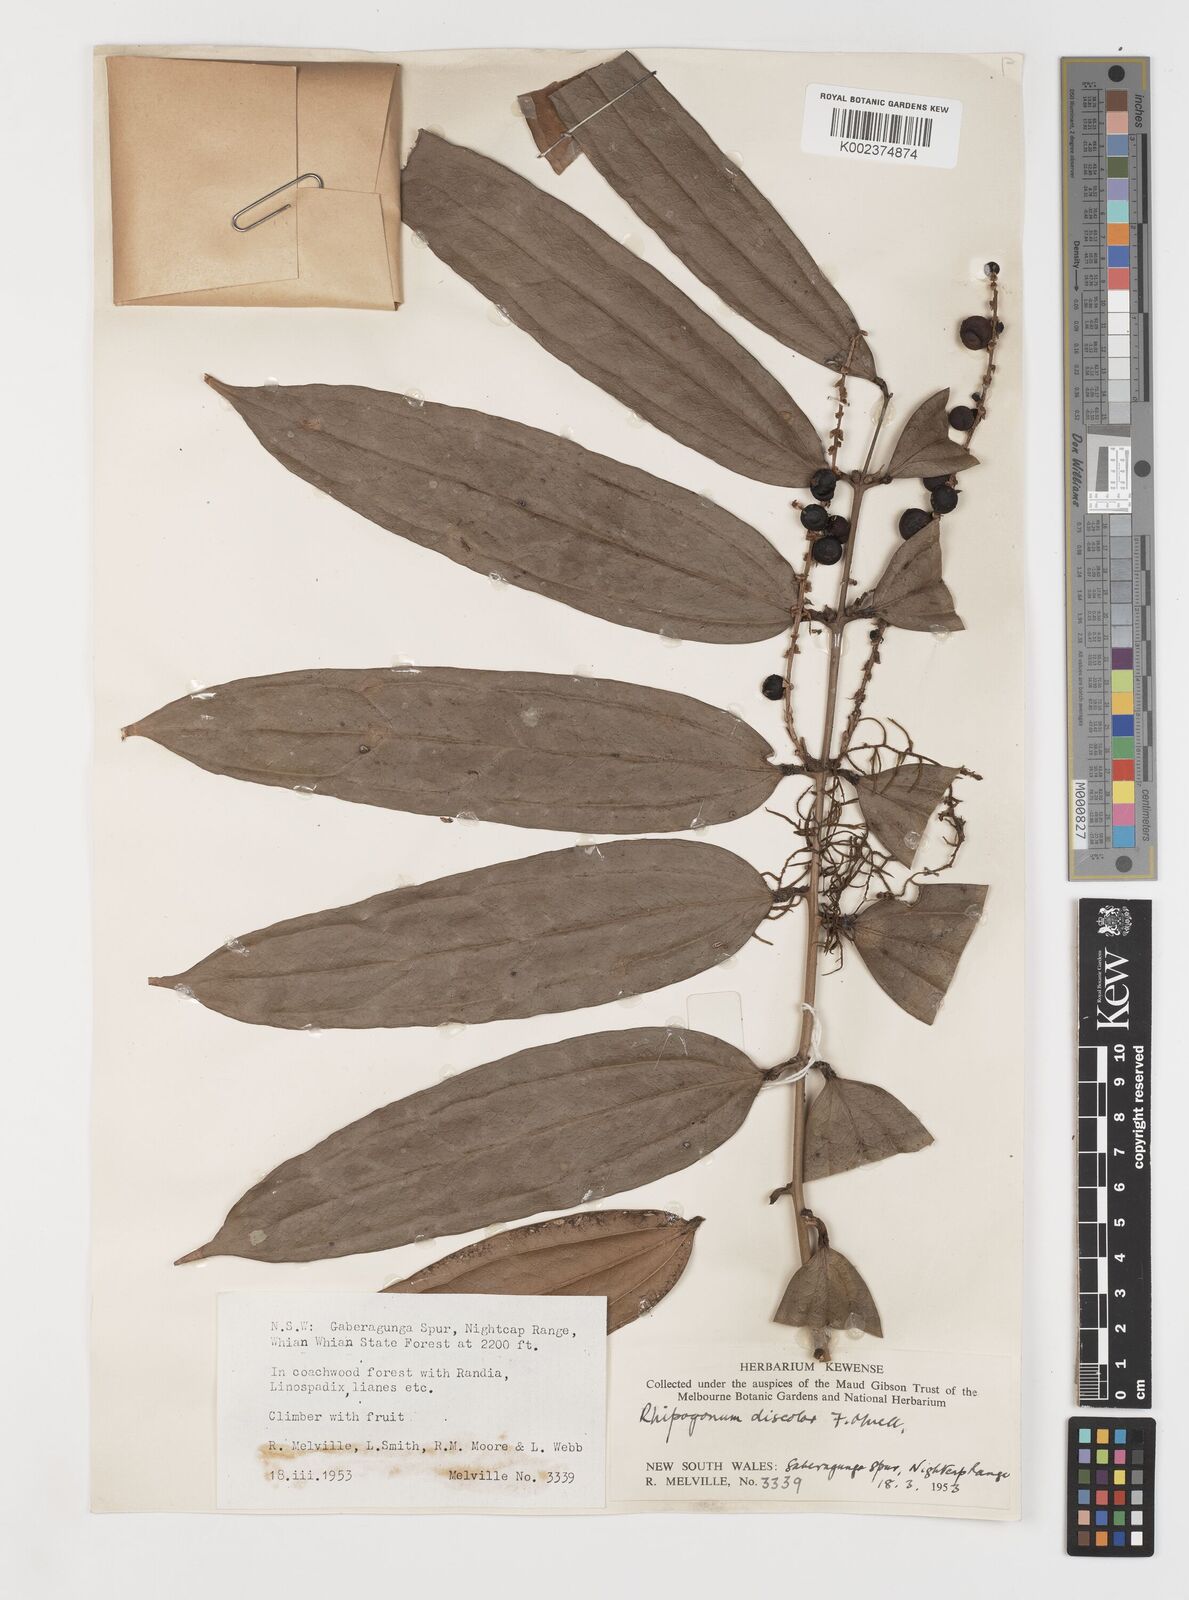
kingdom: Plantae
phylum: Tracheophyta
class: Liliopsida
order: Liliales
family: Ripogonaceae
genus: Ripogonum
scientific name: Ripogonum discolor
